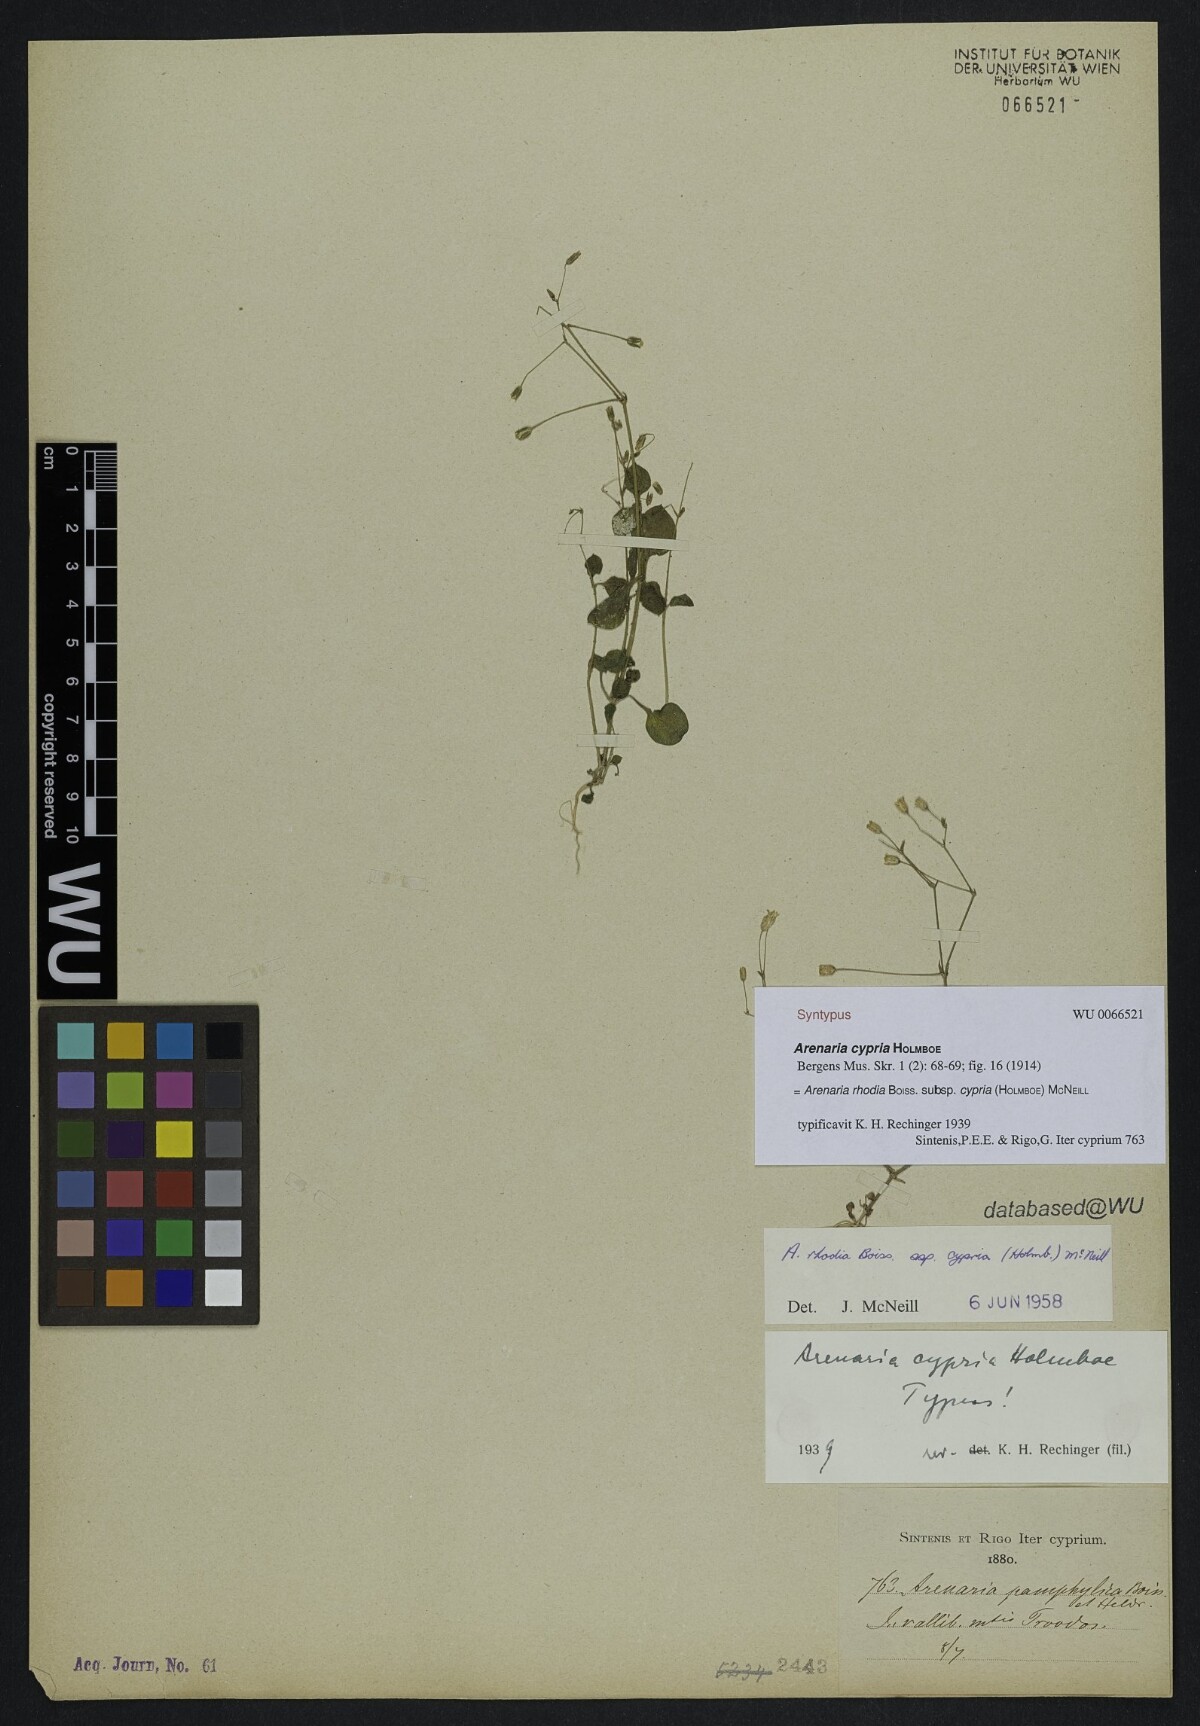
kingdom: Plantae
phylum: Tracheophyta
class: Magnoliopsida
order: Caryophyllales
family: Caryophyllaceae
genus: Arenaria
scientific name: Arenaria rhodia
